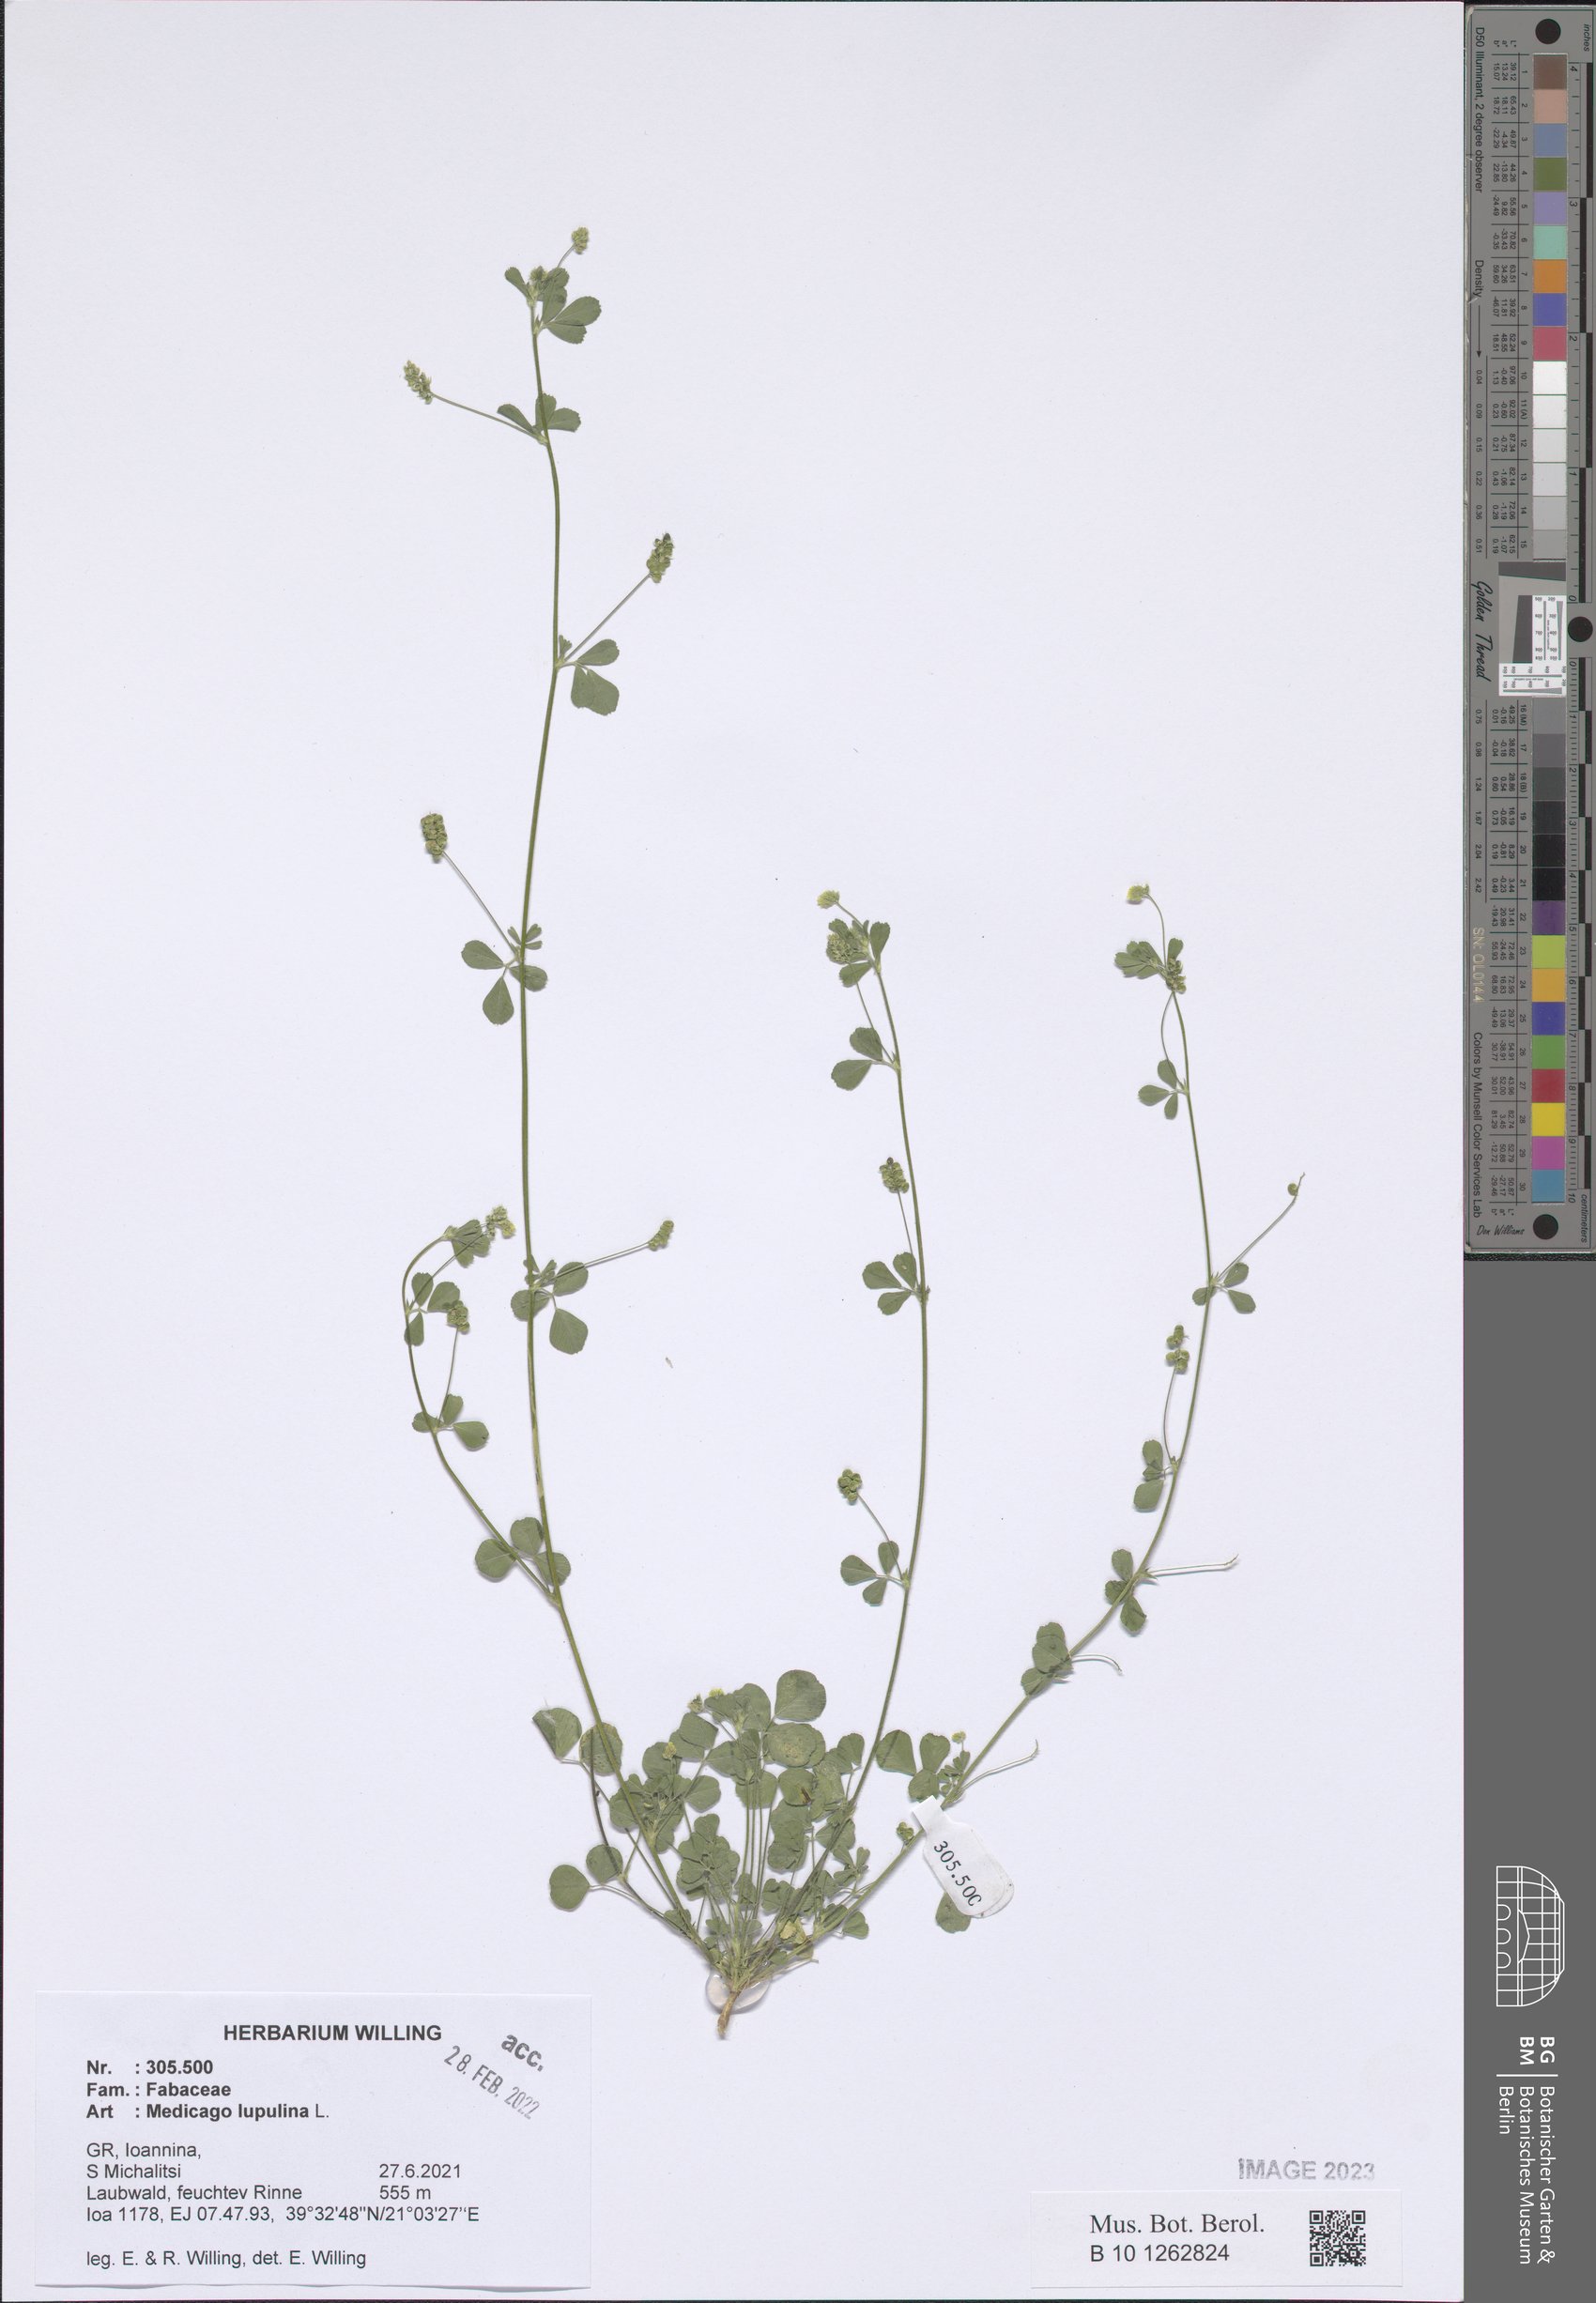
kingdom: Plantae
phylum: Tracheophyta
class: Magnoliopsida
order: Fabales
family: Fabaceae
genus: Medicago
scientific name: Medicago lupulina
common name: Black medick
